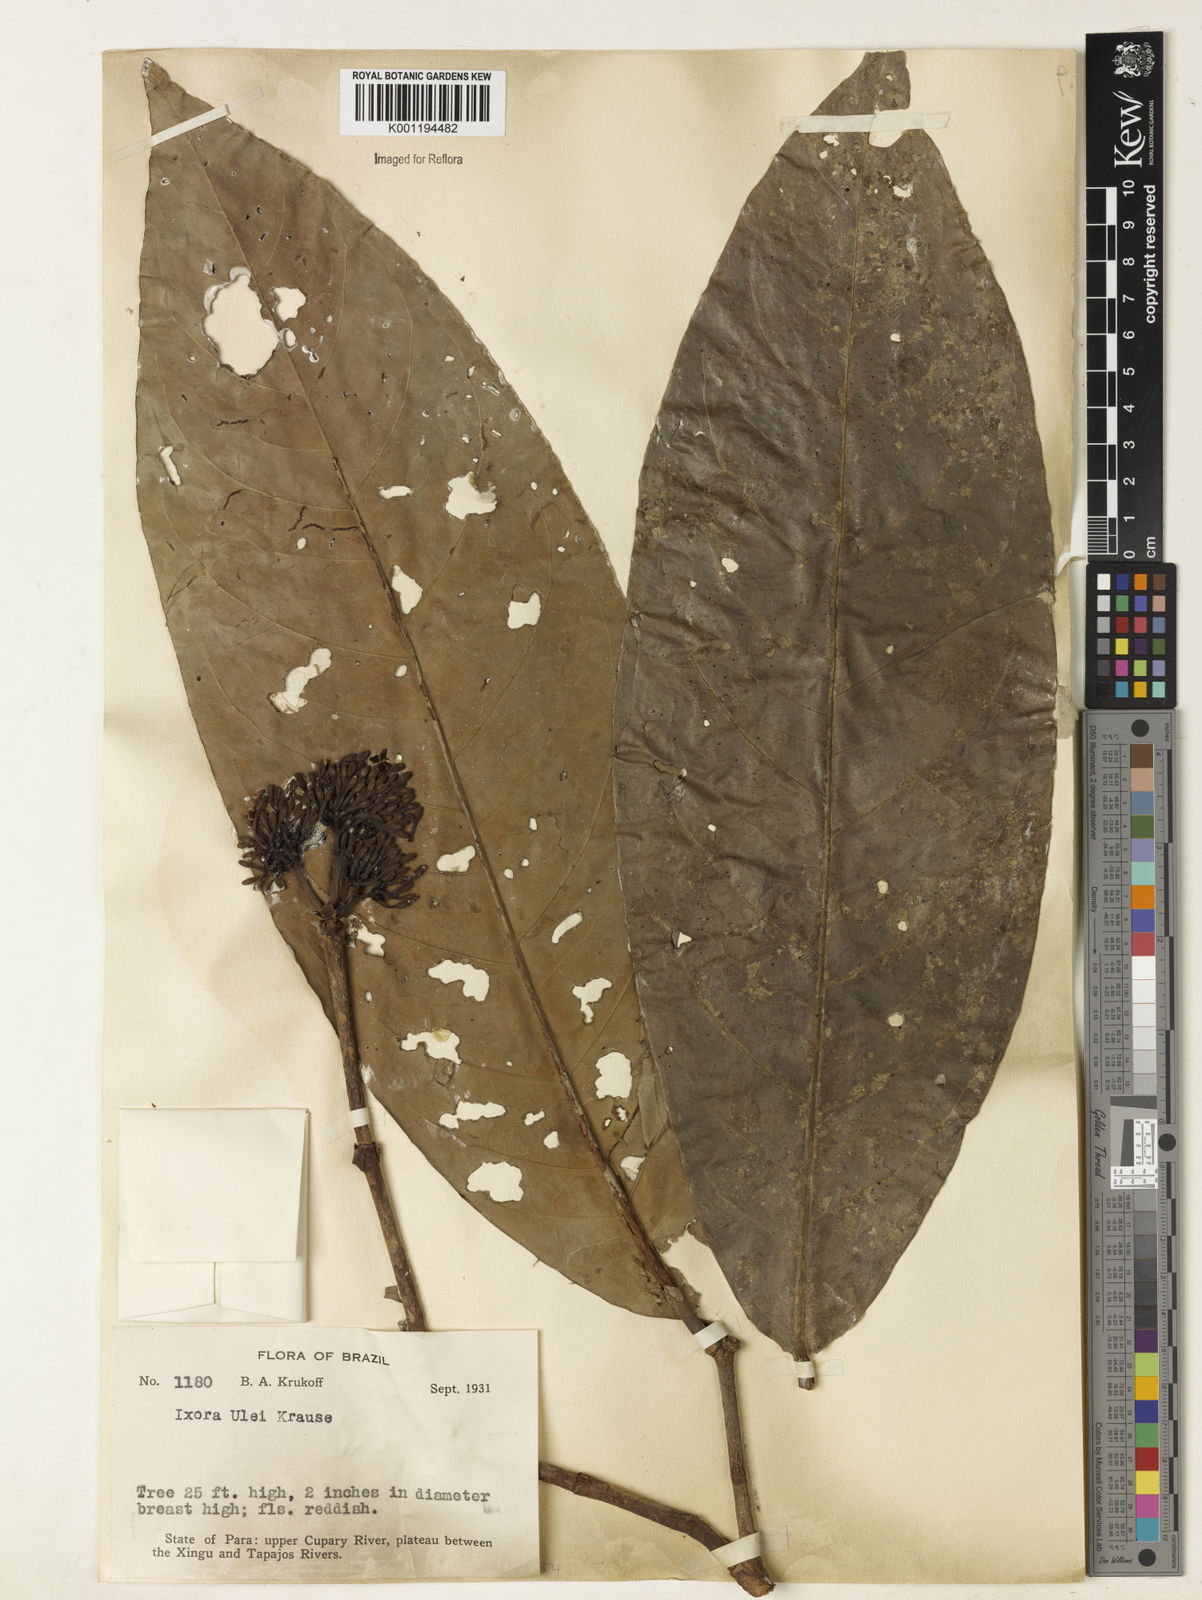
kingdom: Plantae
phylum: Tracheophyta
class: Magnoliopsida
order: Gentianales
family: Rubiaceae
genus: Ixora
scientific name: Ixora sparsifolia
